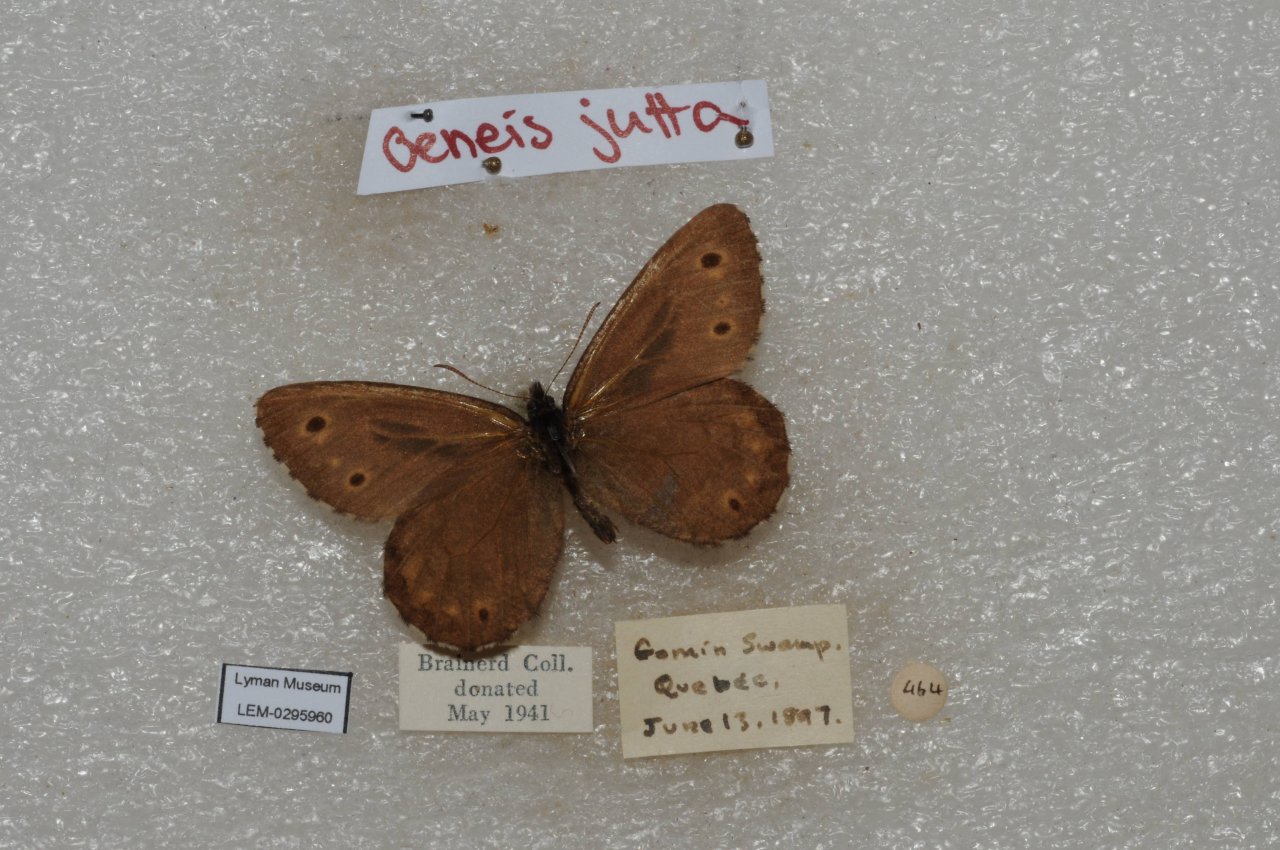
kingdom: Animalia
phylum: Arthropoda
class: Insecta
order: Lepidoptera
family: Nymphalidae
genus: Oeneis
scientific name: Oeneis jutta
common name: Jutta Arctic
